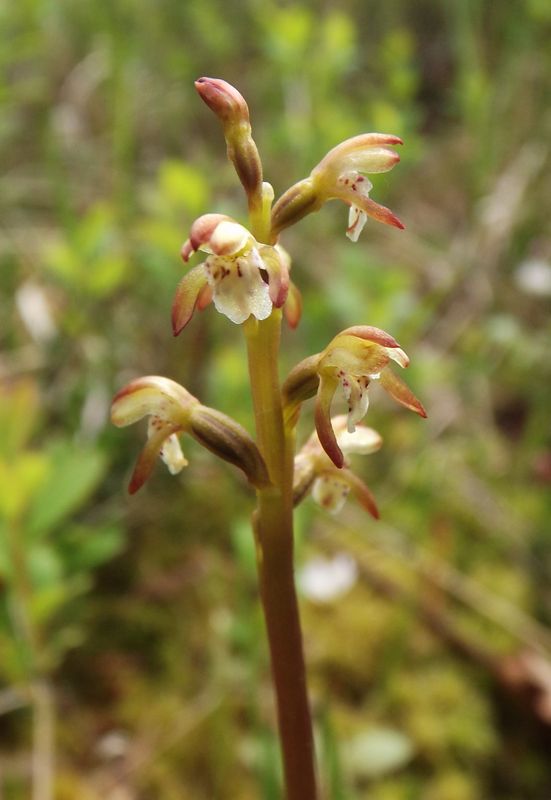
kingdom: Plantae
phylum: Tracheophyta
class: Liliopsida
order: Asparagales
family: Orchidaceae
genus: Corallorhiza
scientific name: Corallorhiza trifida
